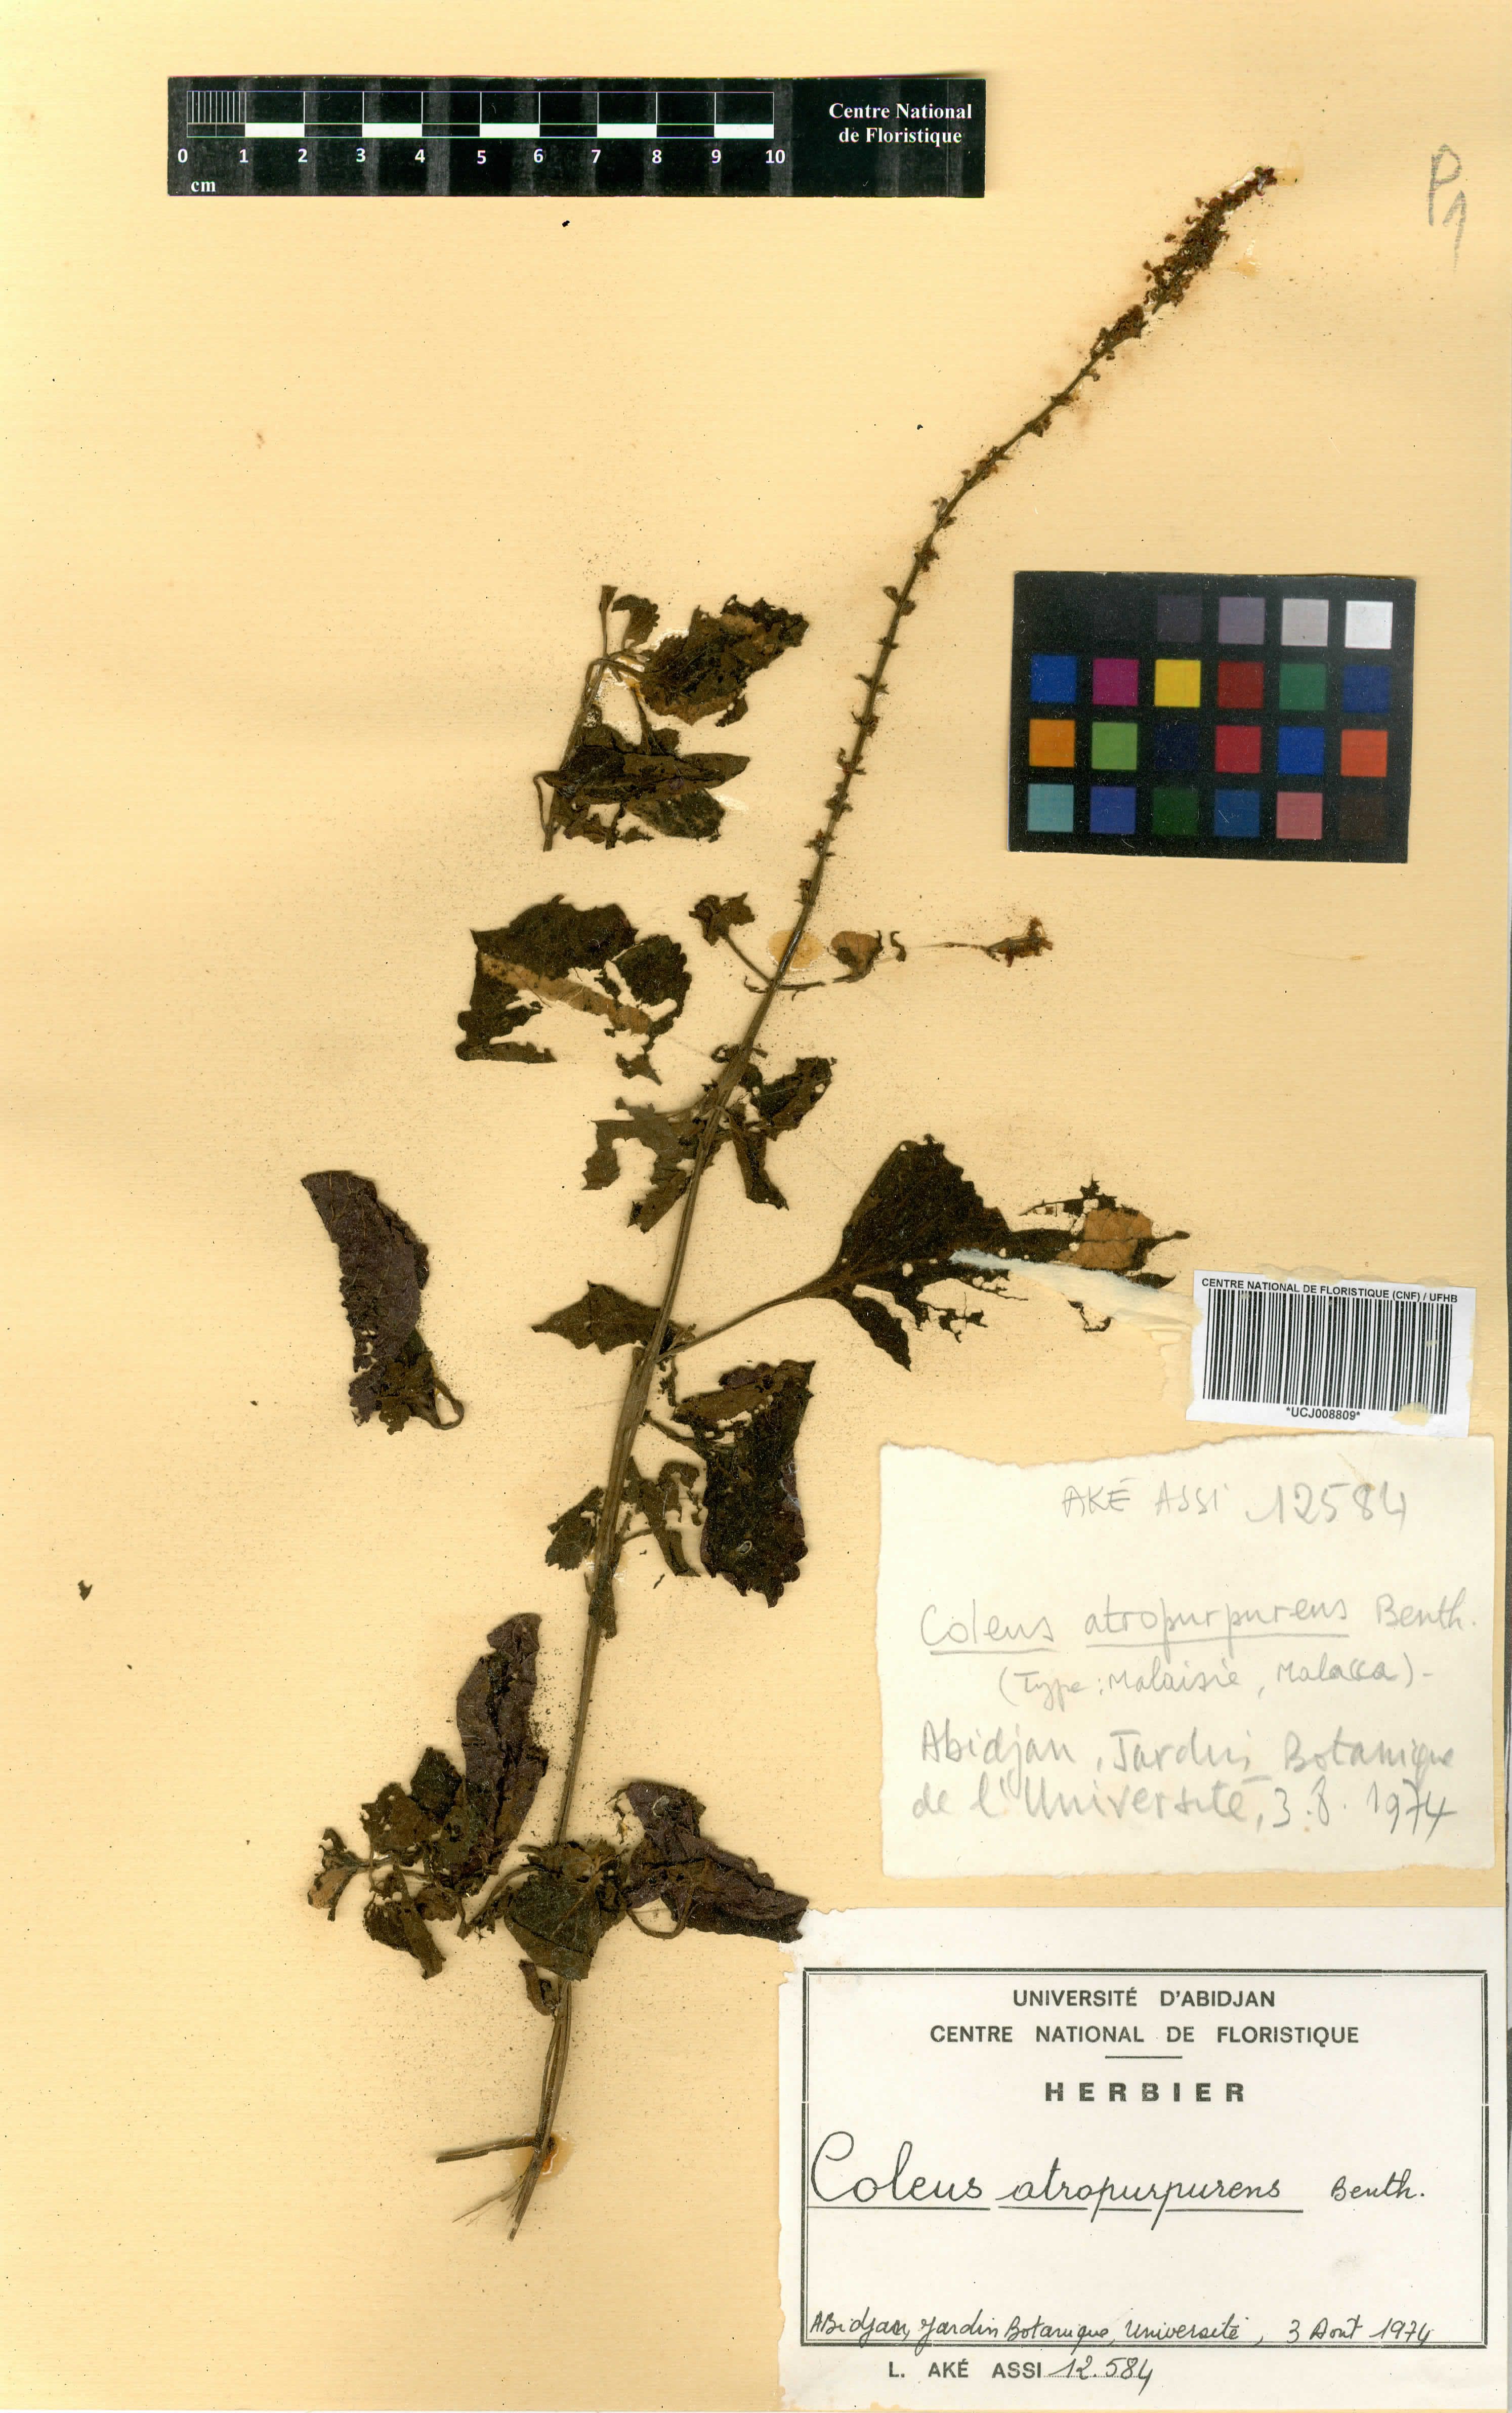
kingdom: Plantae
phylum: Tracheophyta
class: Magnoliopsida
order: Lamiales
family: Lamiaceae
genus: Coleus
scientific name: Coleus scutellarioides
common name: Coleus
